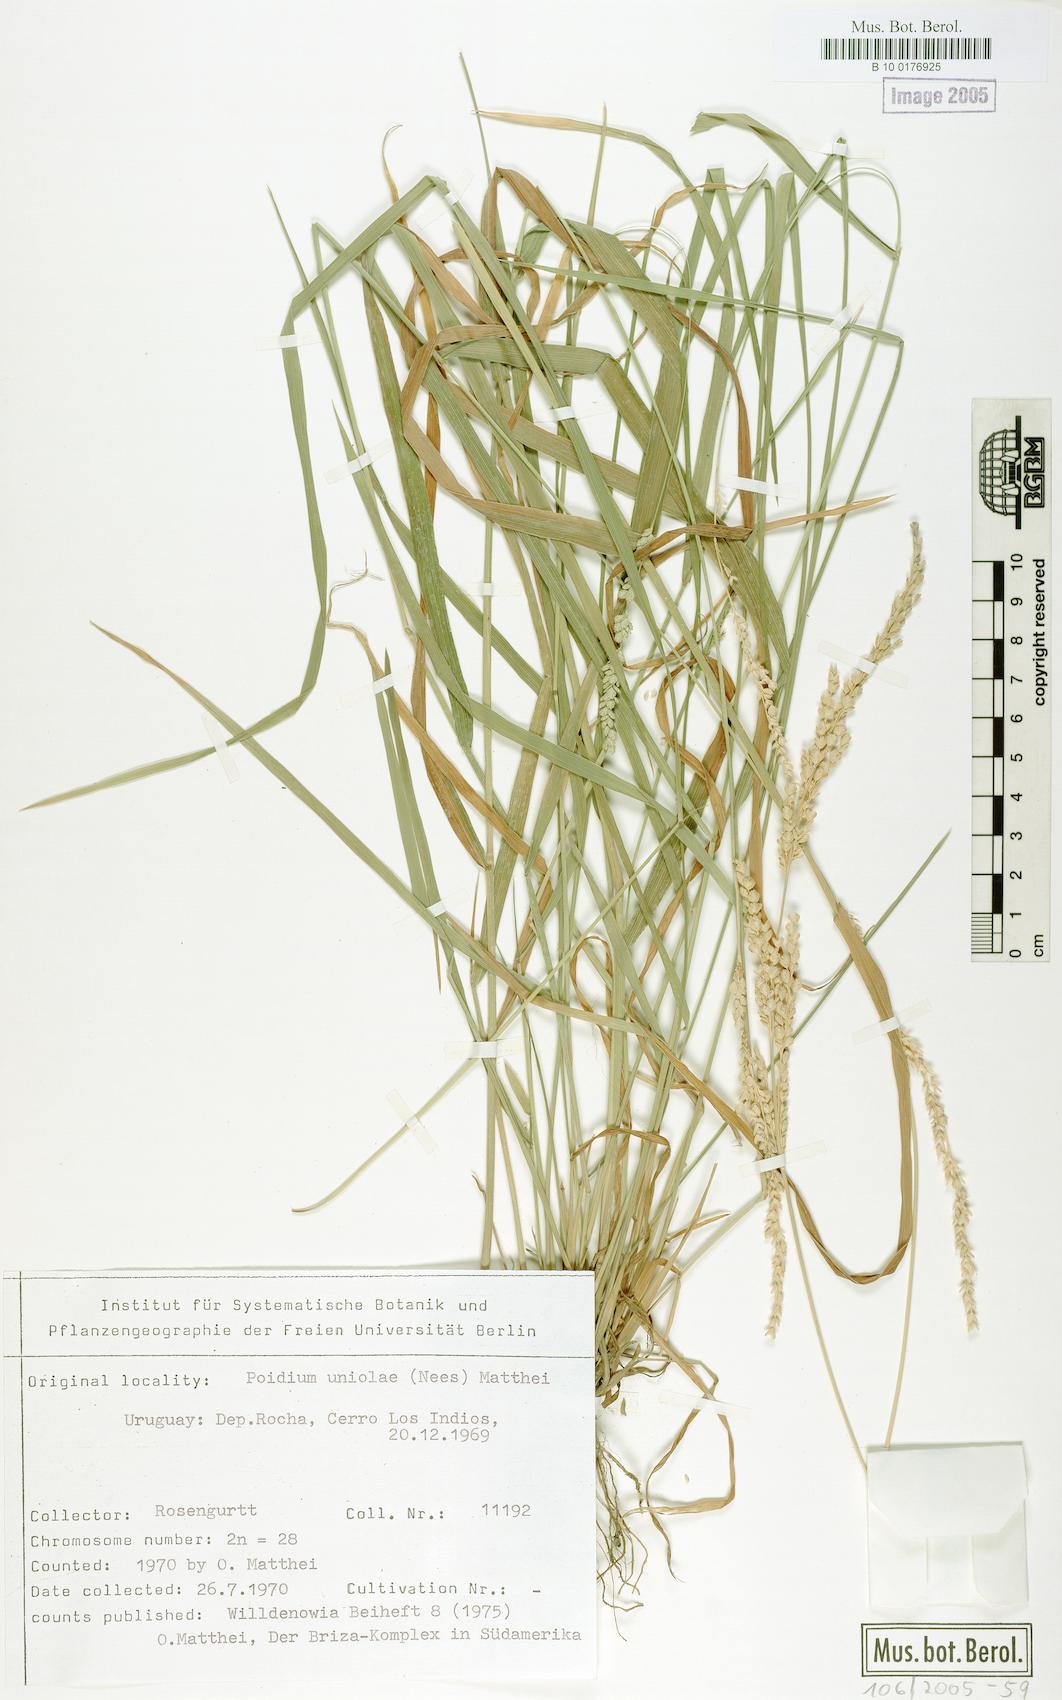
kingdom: Plantae
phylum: Tracheophyta
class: Liliopsida
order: Poales
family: Poaceae
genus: Poidium
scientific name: Poidium uniolae
